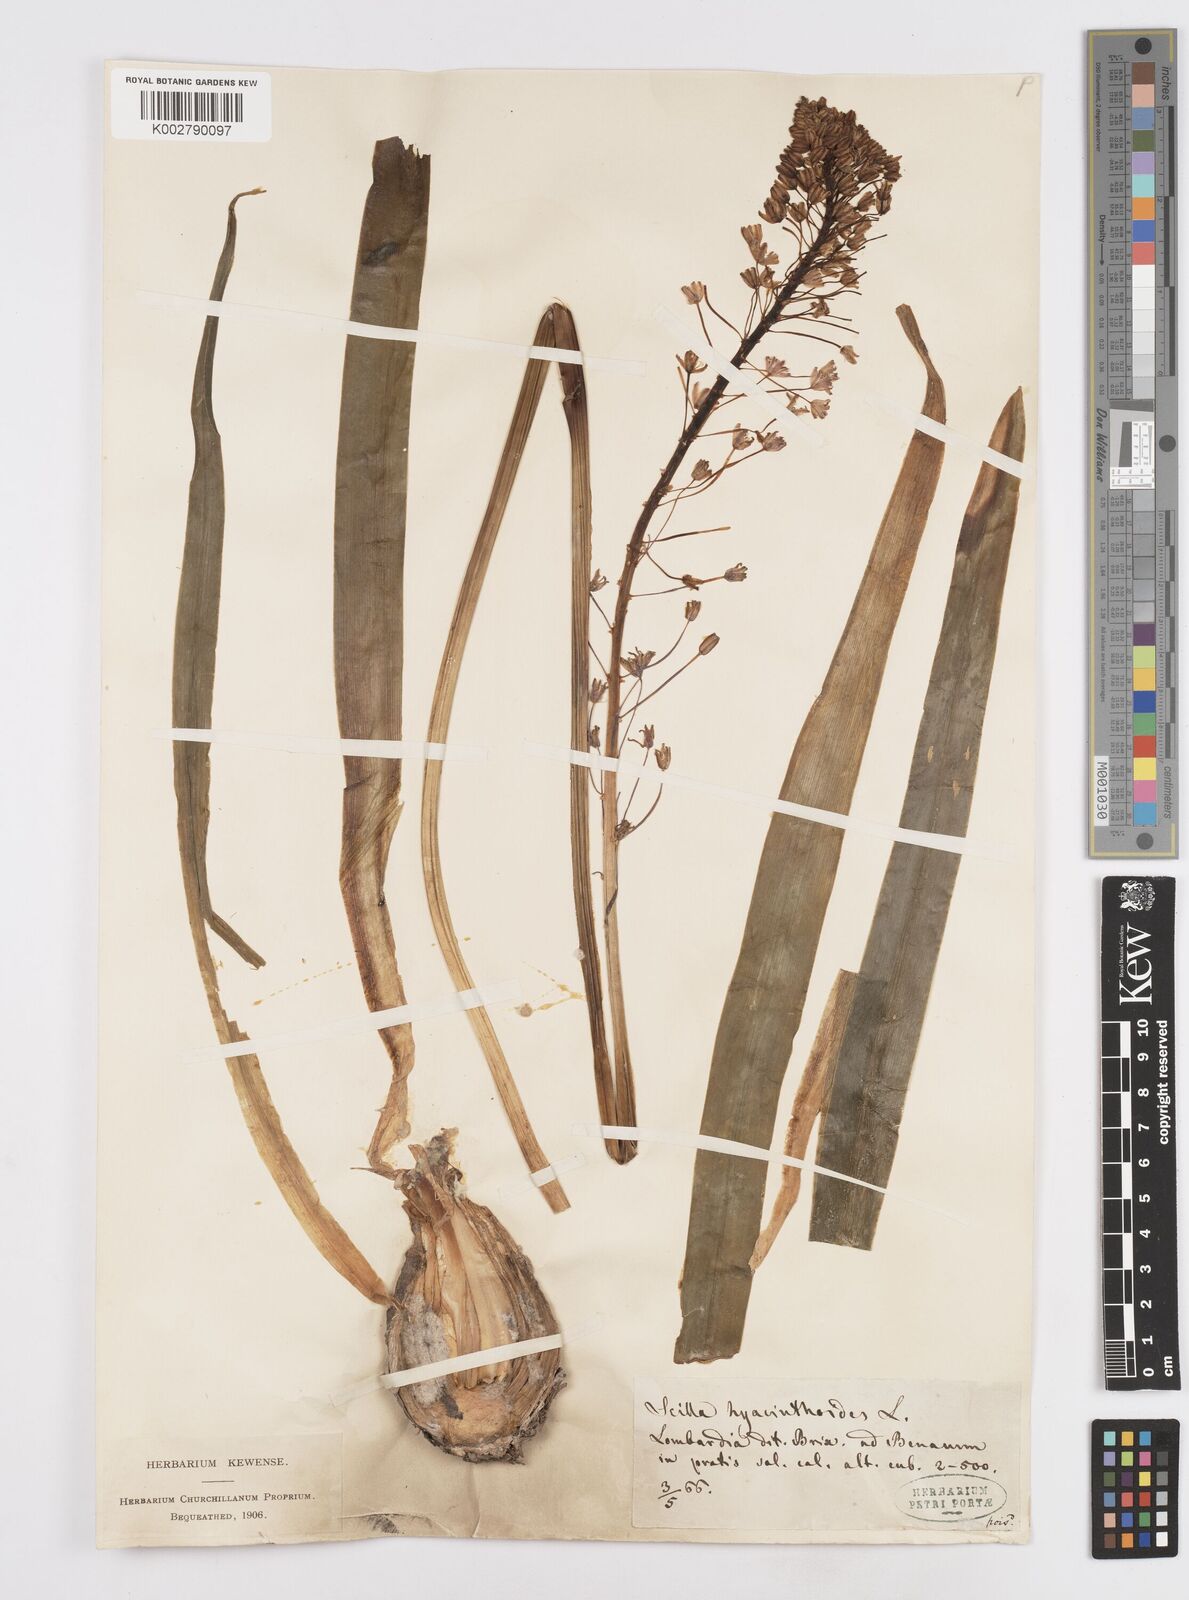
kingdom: Plantae
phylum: Tracheophyta
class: Liliopsida
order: Asparagales
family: Asparagaceae
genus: Scilla
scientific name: Scilla hyacinthoides
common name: Scilla
